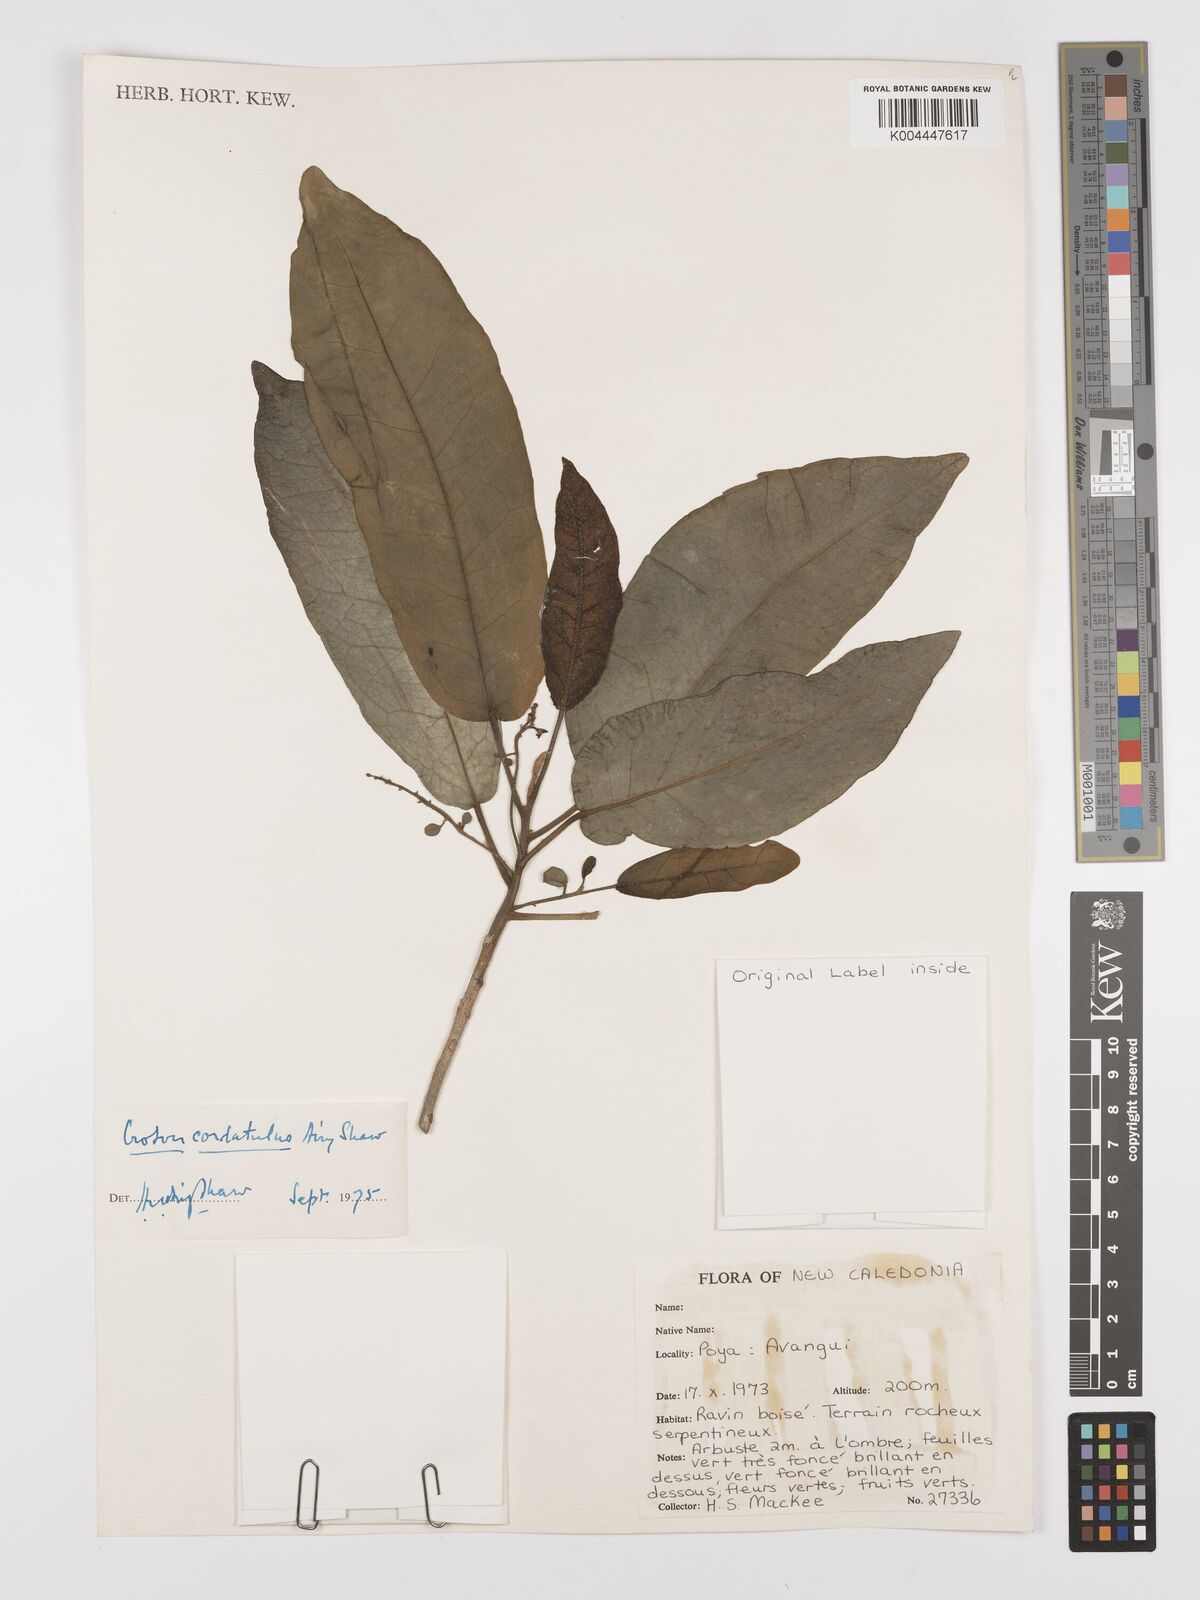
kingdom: Plantae
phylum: Tracheophyta
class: Magnoliopsida
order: Malpighiales
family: Euphorbiaceae
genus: Croton
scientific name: Croton cordatulus
